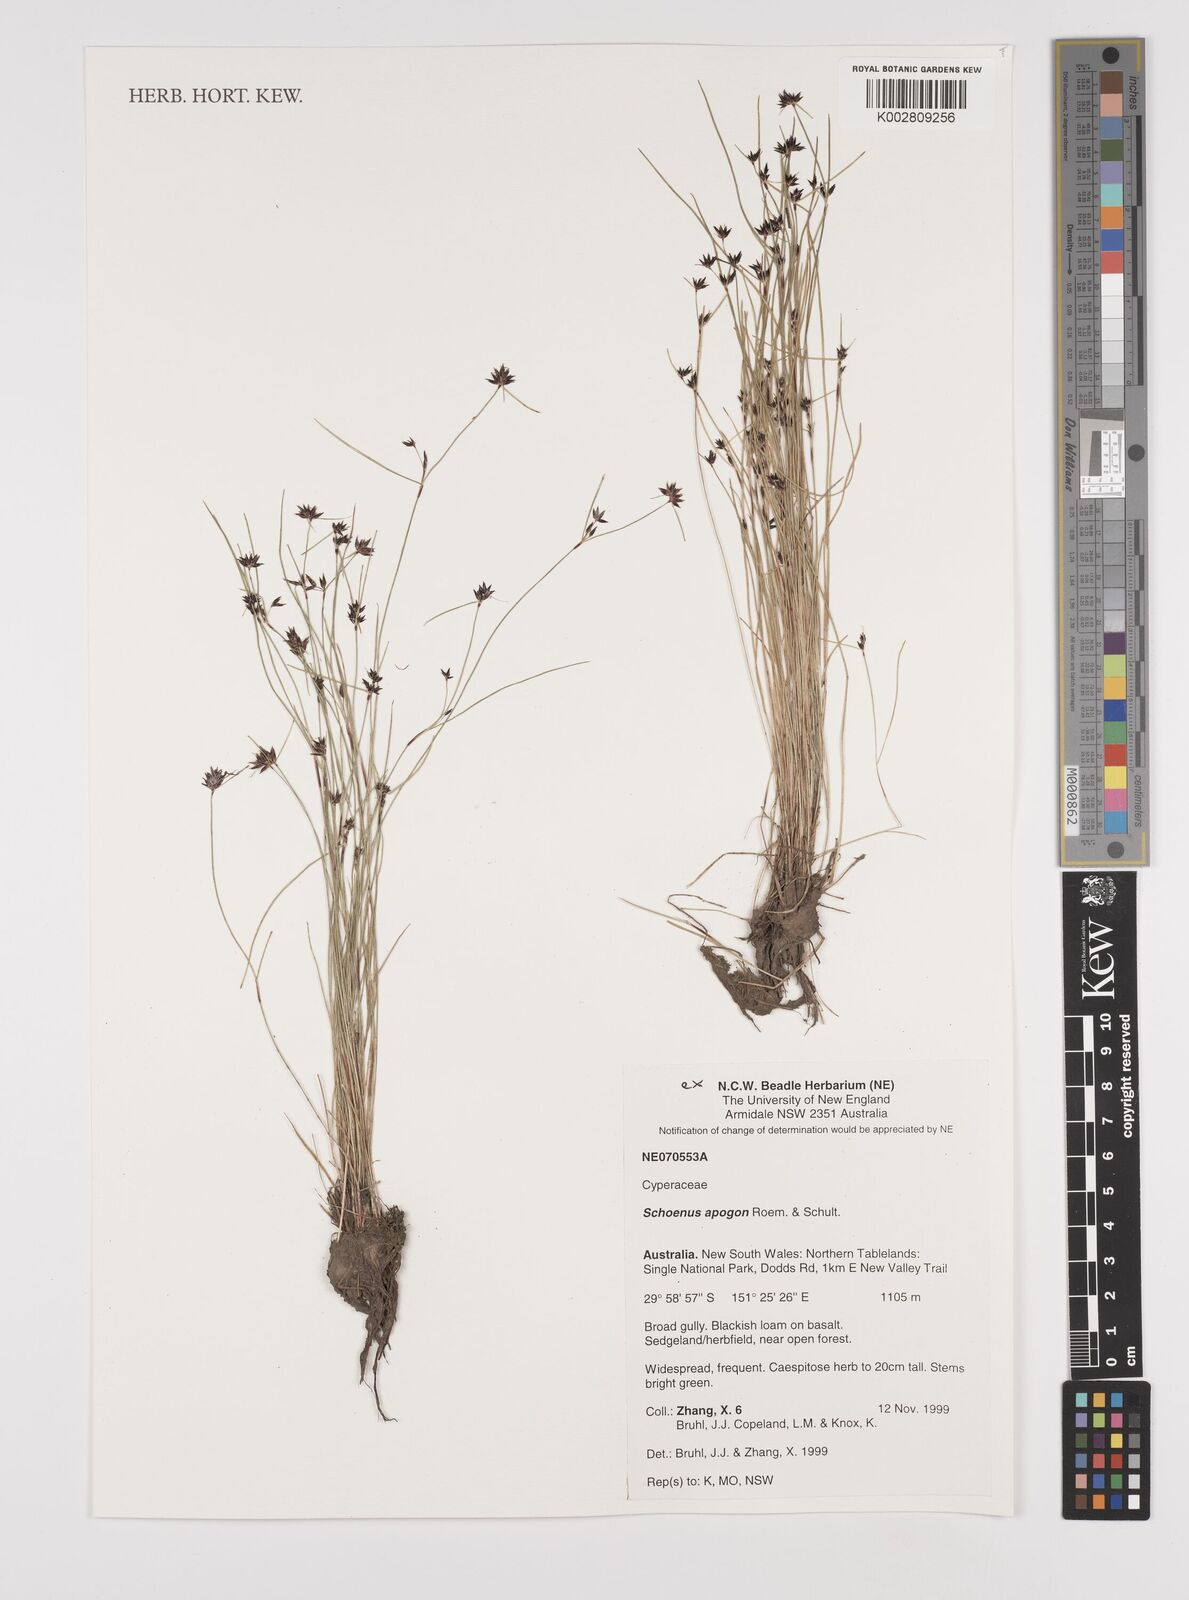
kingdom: Plantae
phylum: Tracheophyta
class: Liliopsida
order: Poales
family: Cyperaceae
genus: Schoenus
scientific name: Schoenus apogon
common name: Smooth bogrush
